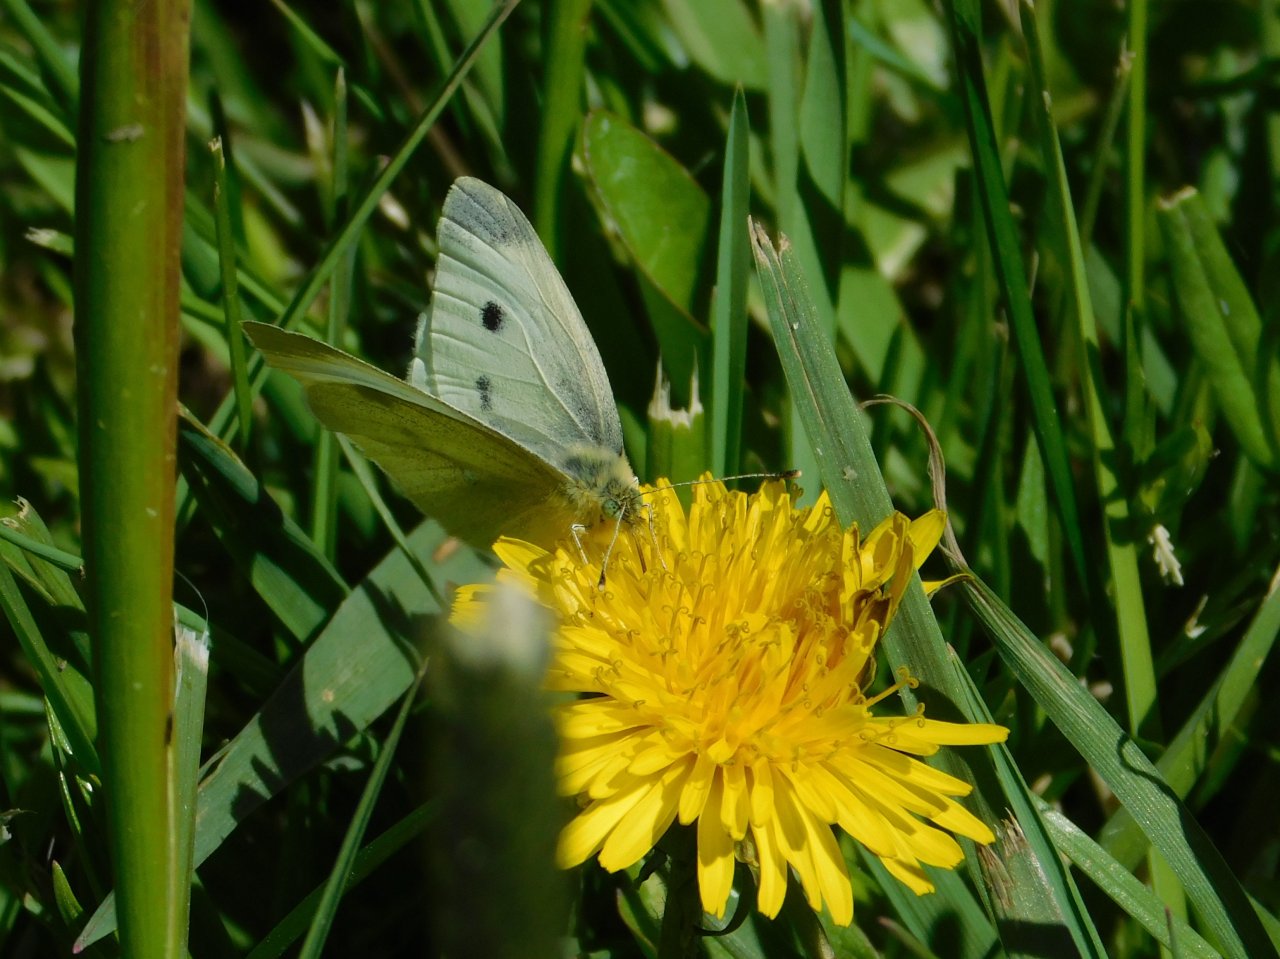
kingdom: Animalia
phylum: Arthropoda
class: Insecta
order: Lepidoptera
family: Pieridae
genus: Pieris
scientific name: Pieris rapae
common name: Cabbage White
